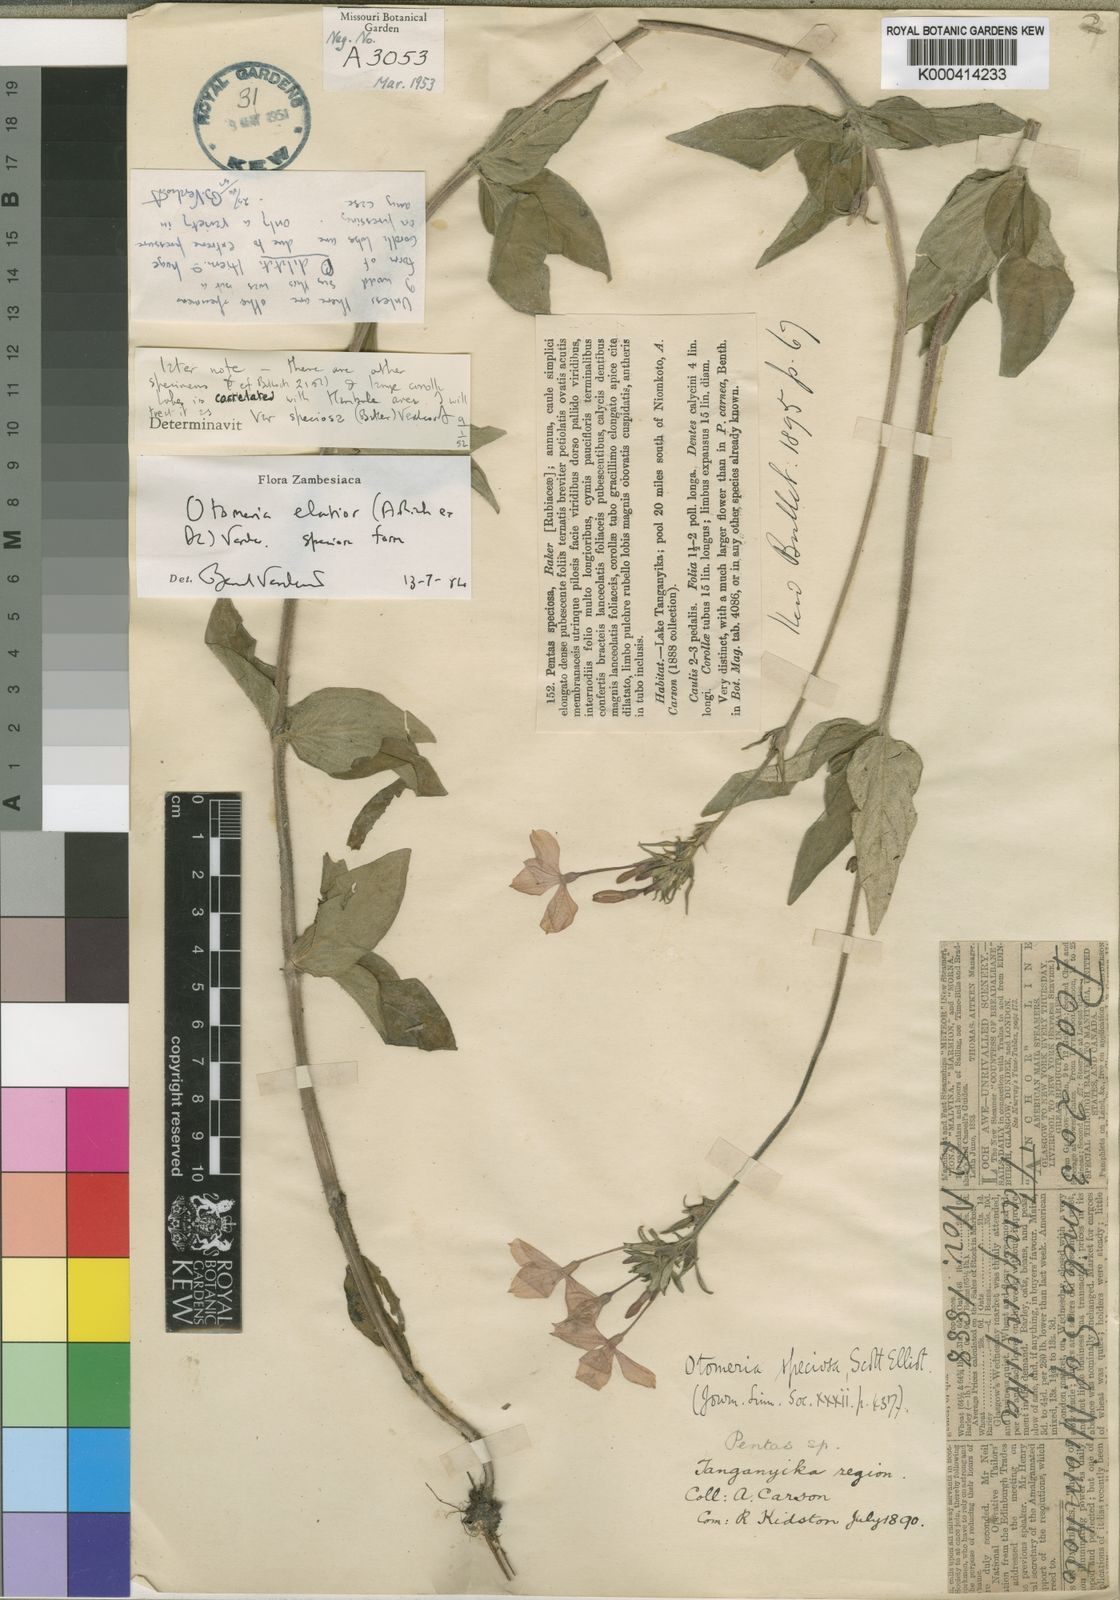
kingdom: Plantae
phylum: Tracheophyta
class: Magnoliopsida
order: Gentianales
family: Rubiaceae
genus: Otomeria
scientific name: Otomeria elatior
